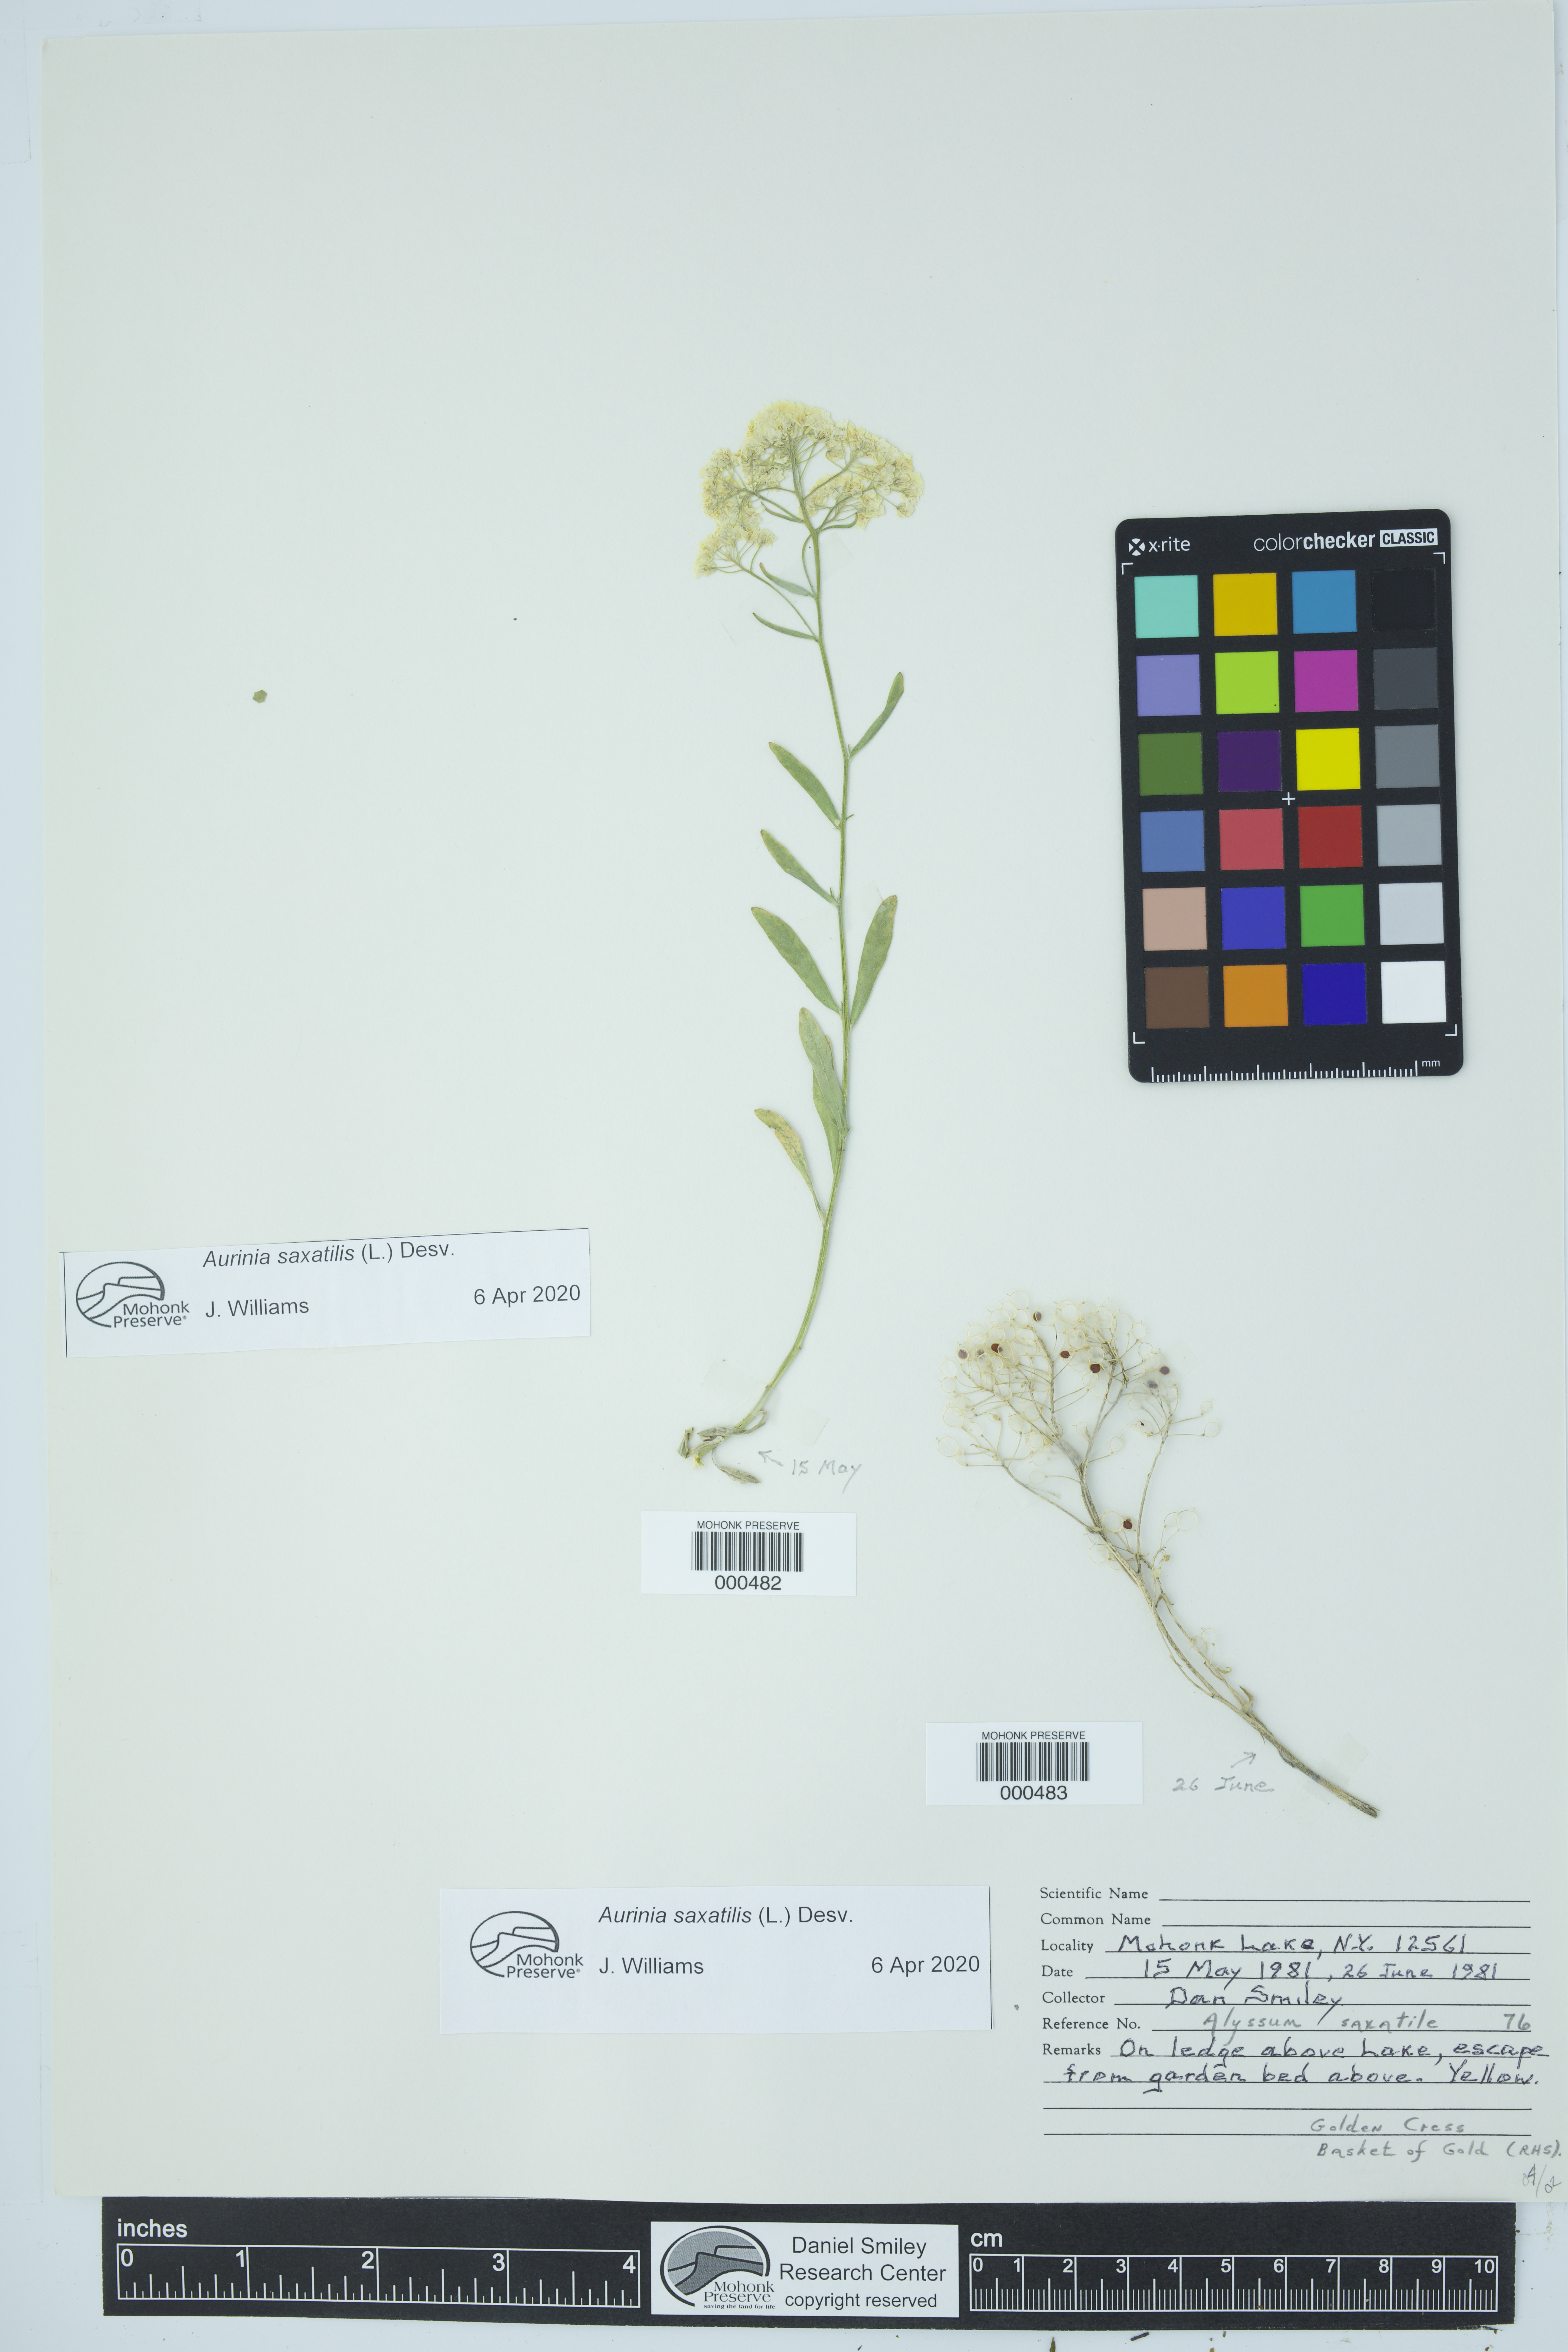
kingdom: Plantae
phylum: Tracheophyta
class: Magnoliopsida
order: Brassicales
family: Brassicaceae
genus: Aurinia
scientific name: Aurinia saxatilis
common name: Golden-tuft alyssum
